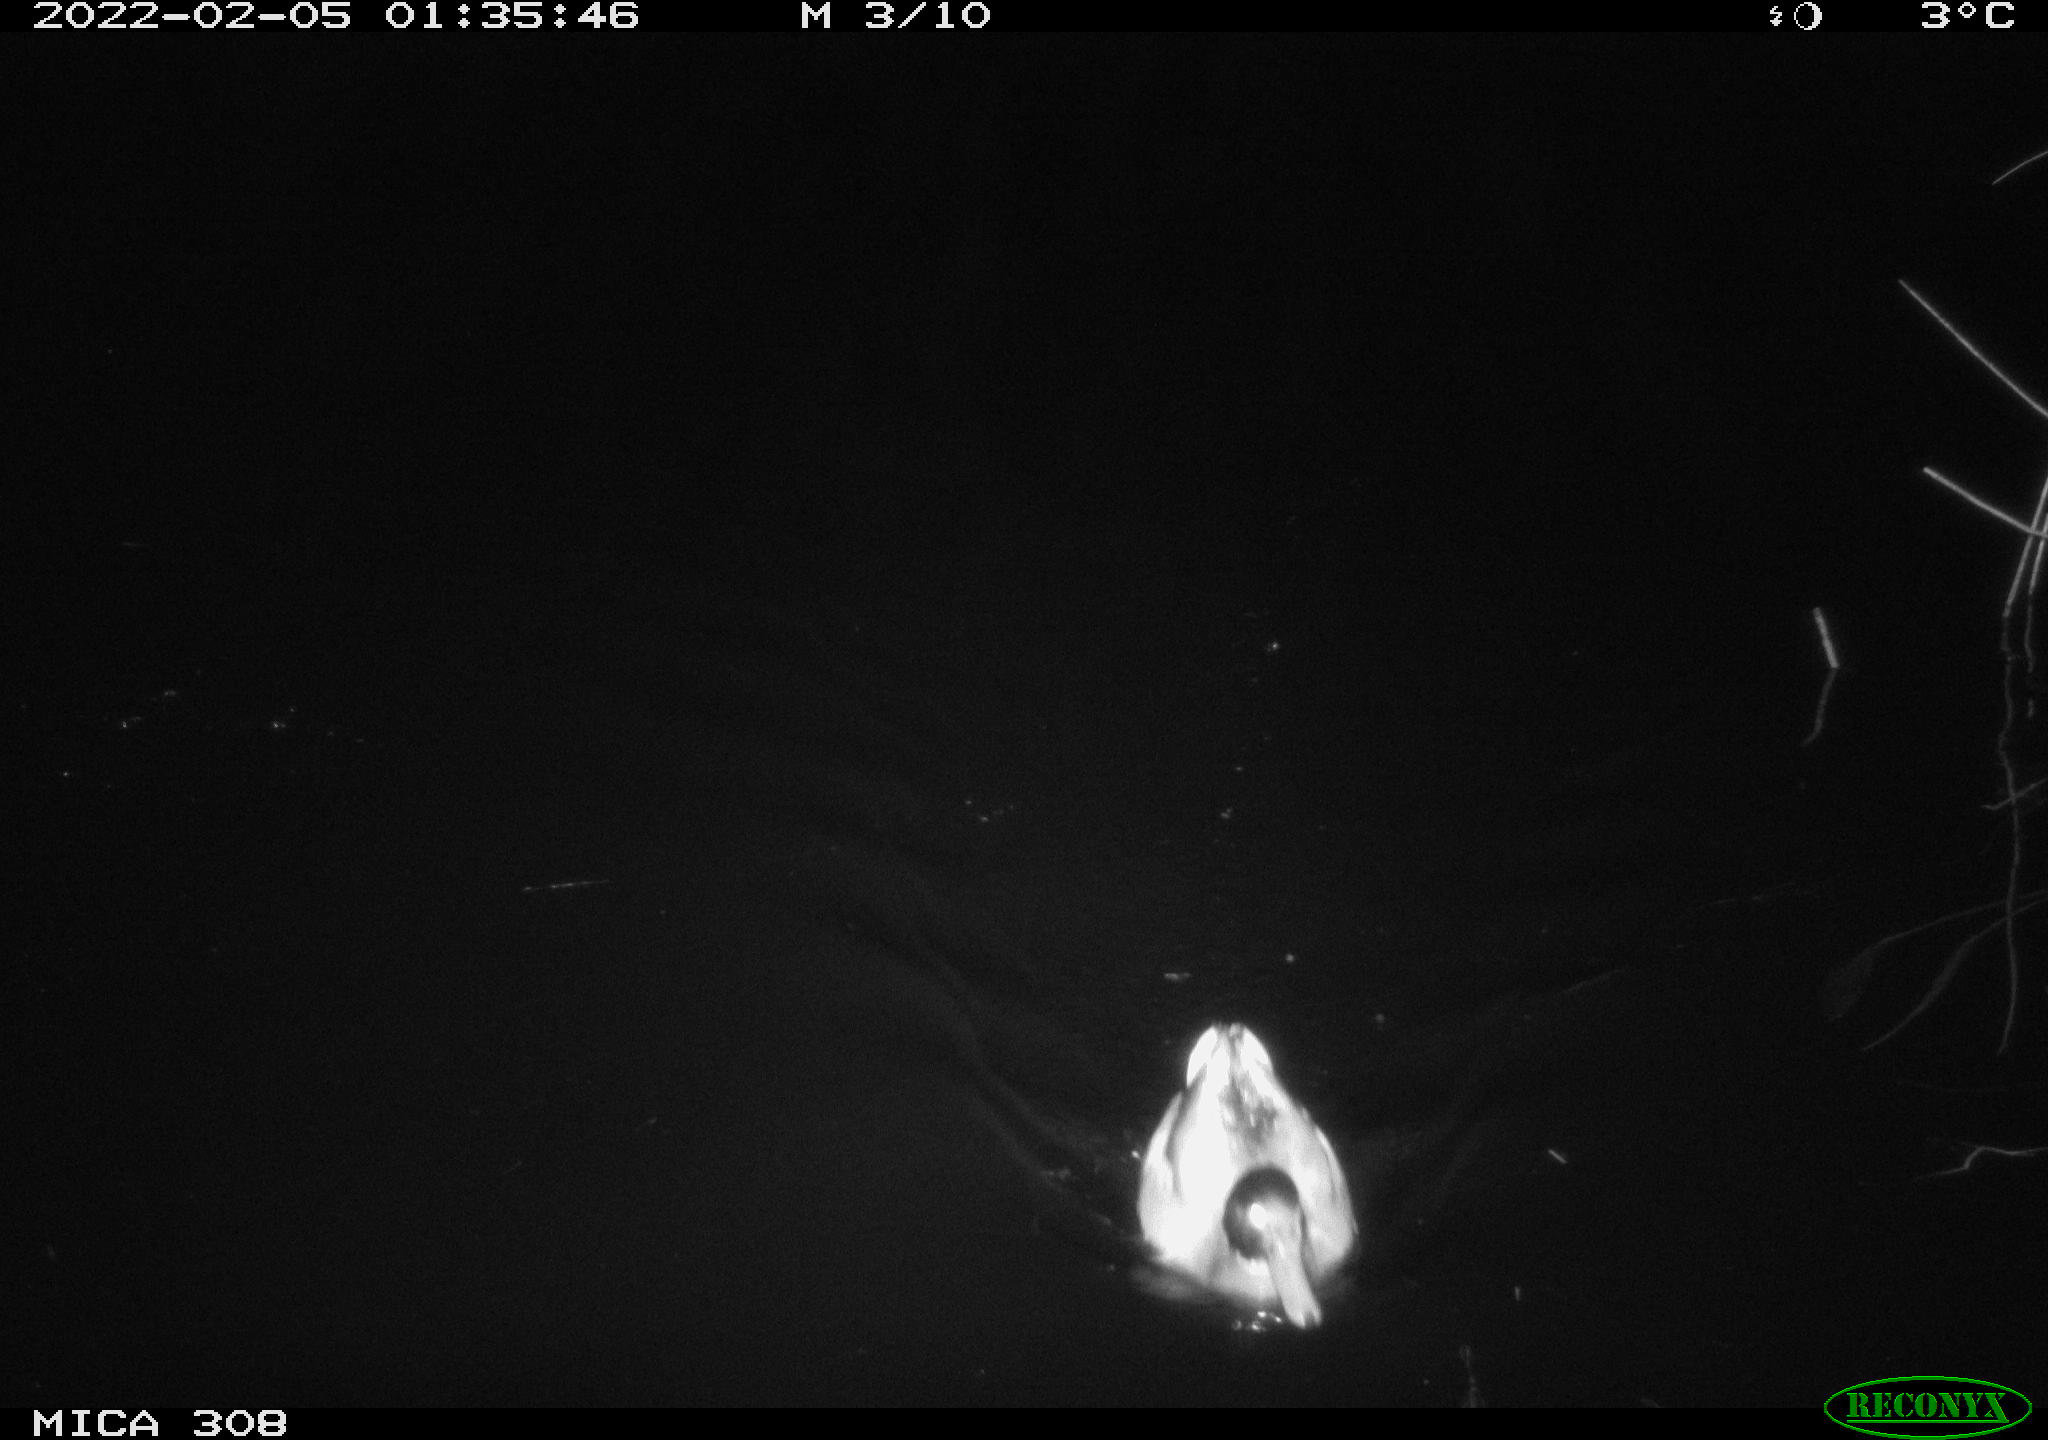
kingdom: Animalia
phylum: Chordata
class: Aves
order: Anseriformes
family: Anatidae
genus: Anas
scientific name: Anas platyrhynchos
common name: Mallard
